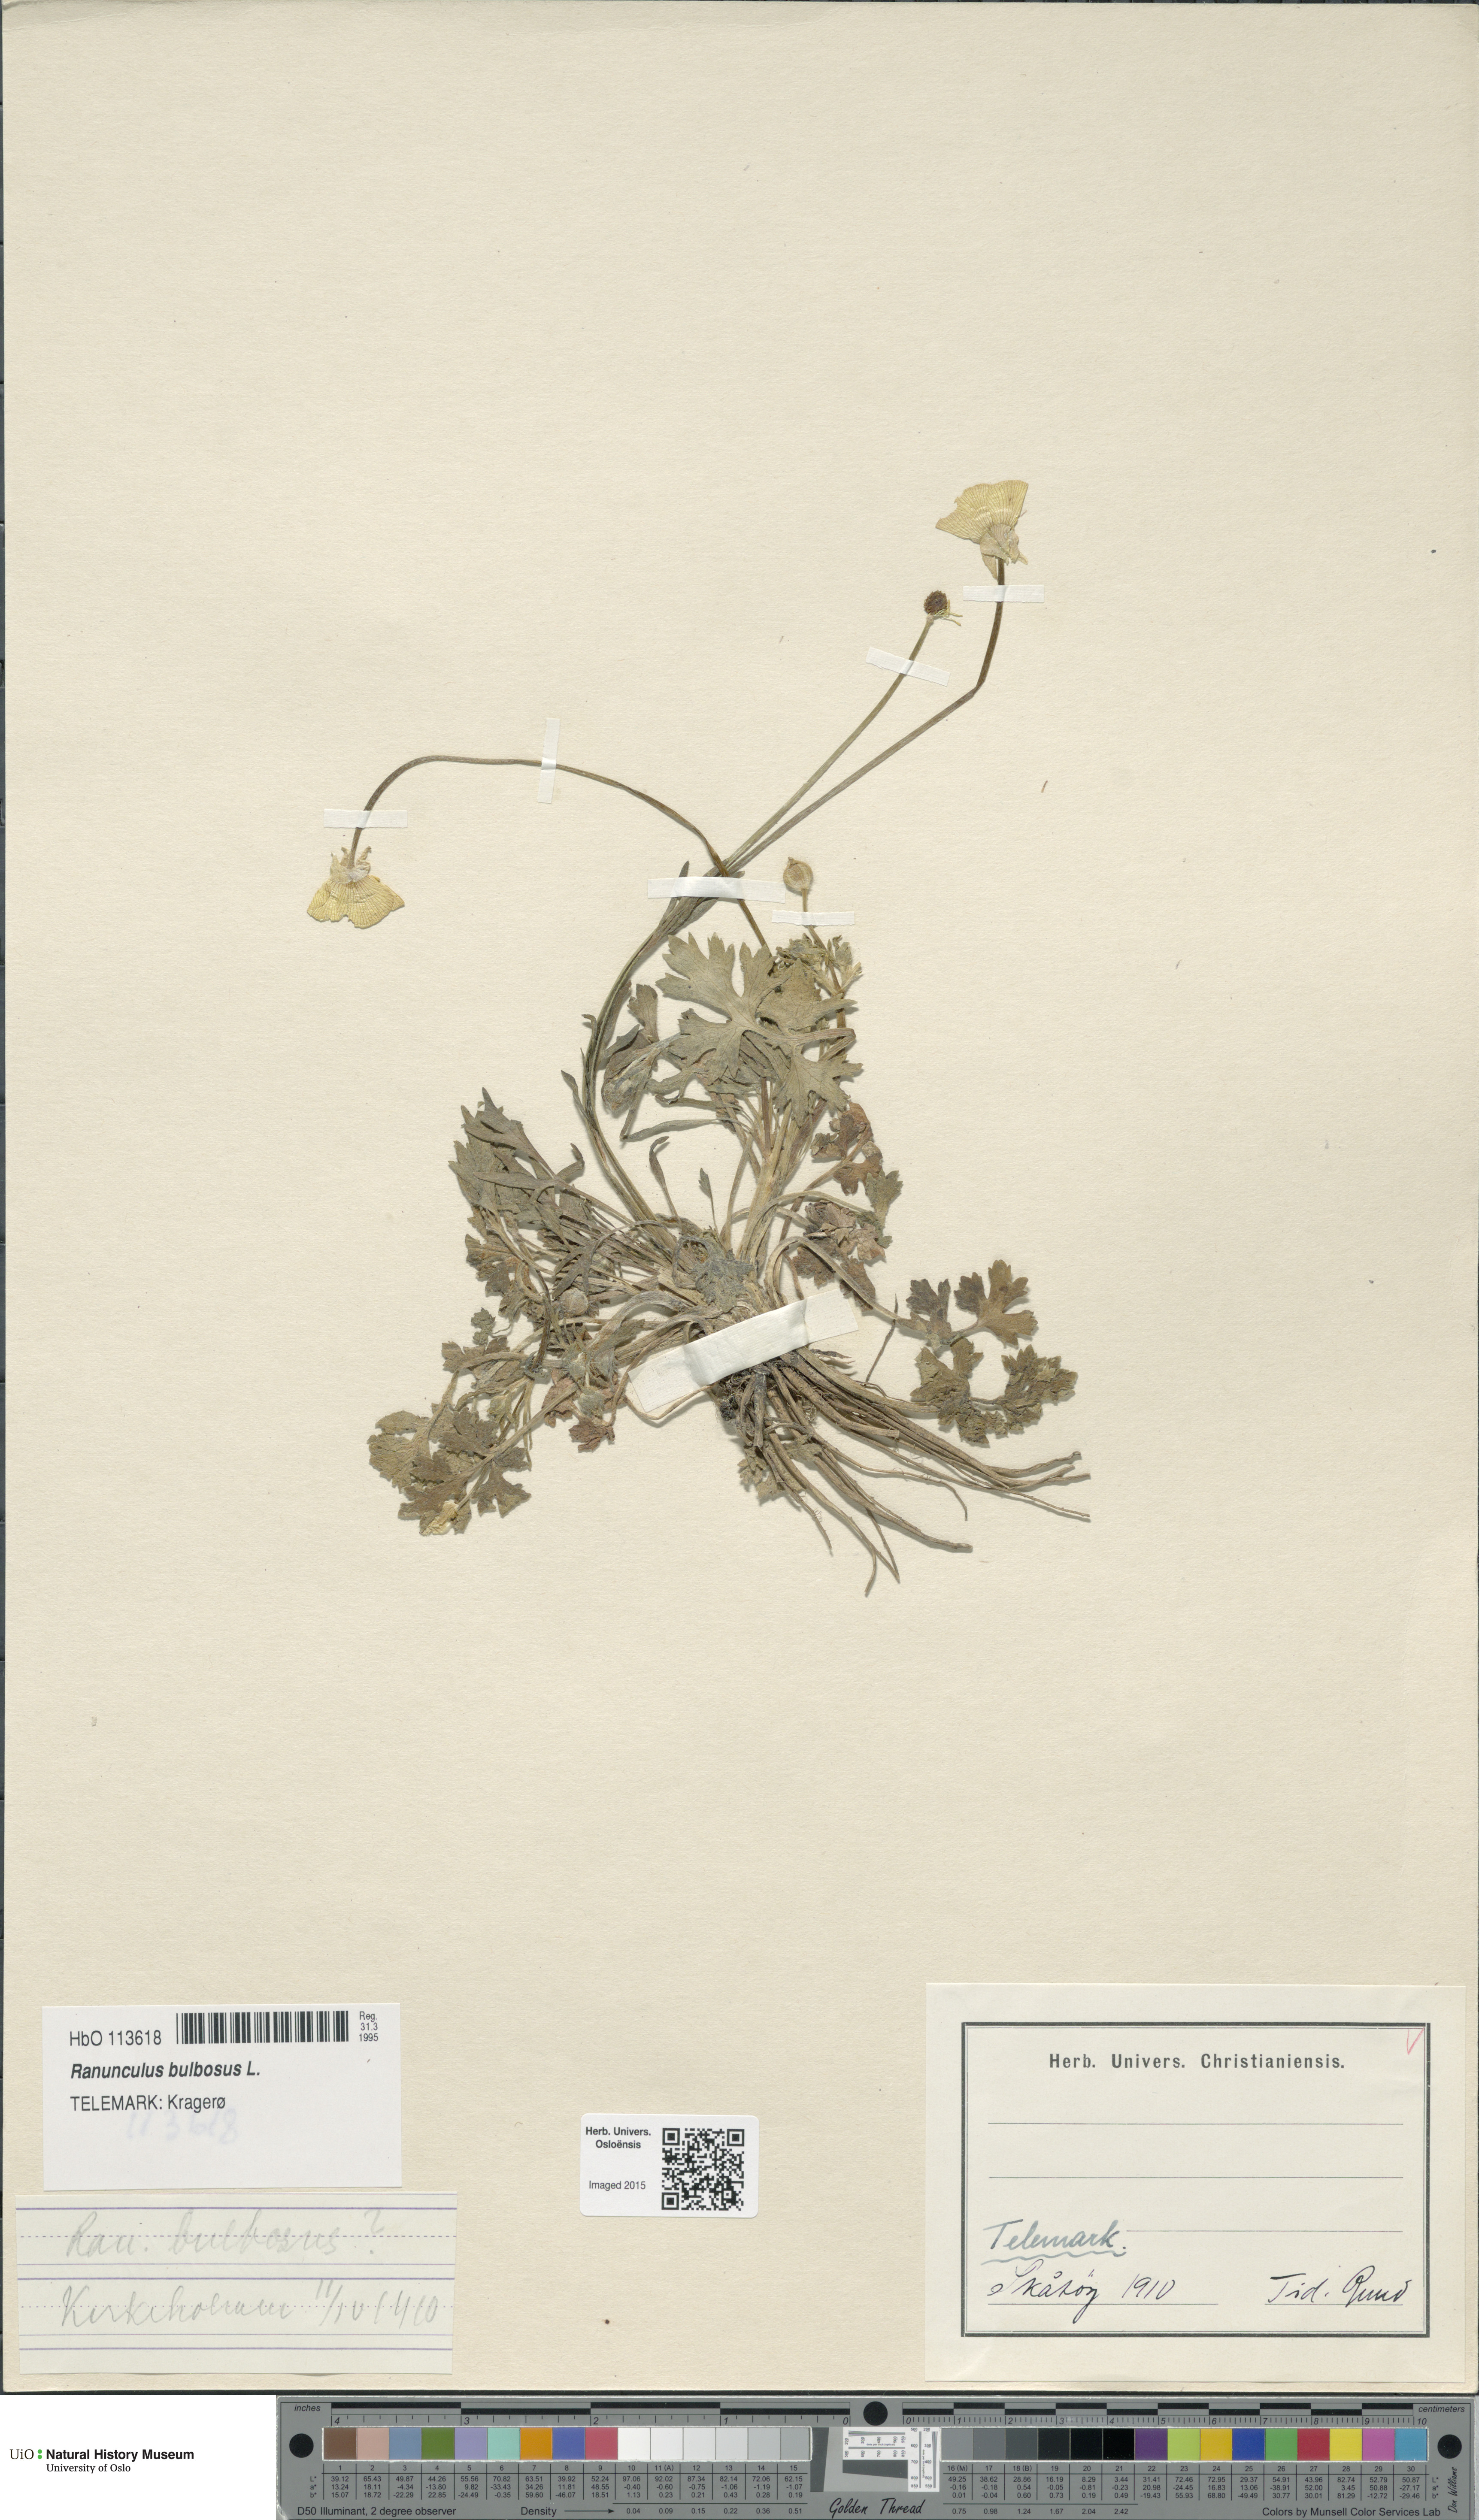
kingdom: Plantae
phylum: Tracheophyta
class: Magnoliopsida
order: Ranunculales
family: Ranunculaceae
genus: Ranunculus
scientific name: Ranunculus bulbosus
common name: Bulbous buttercup
